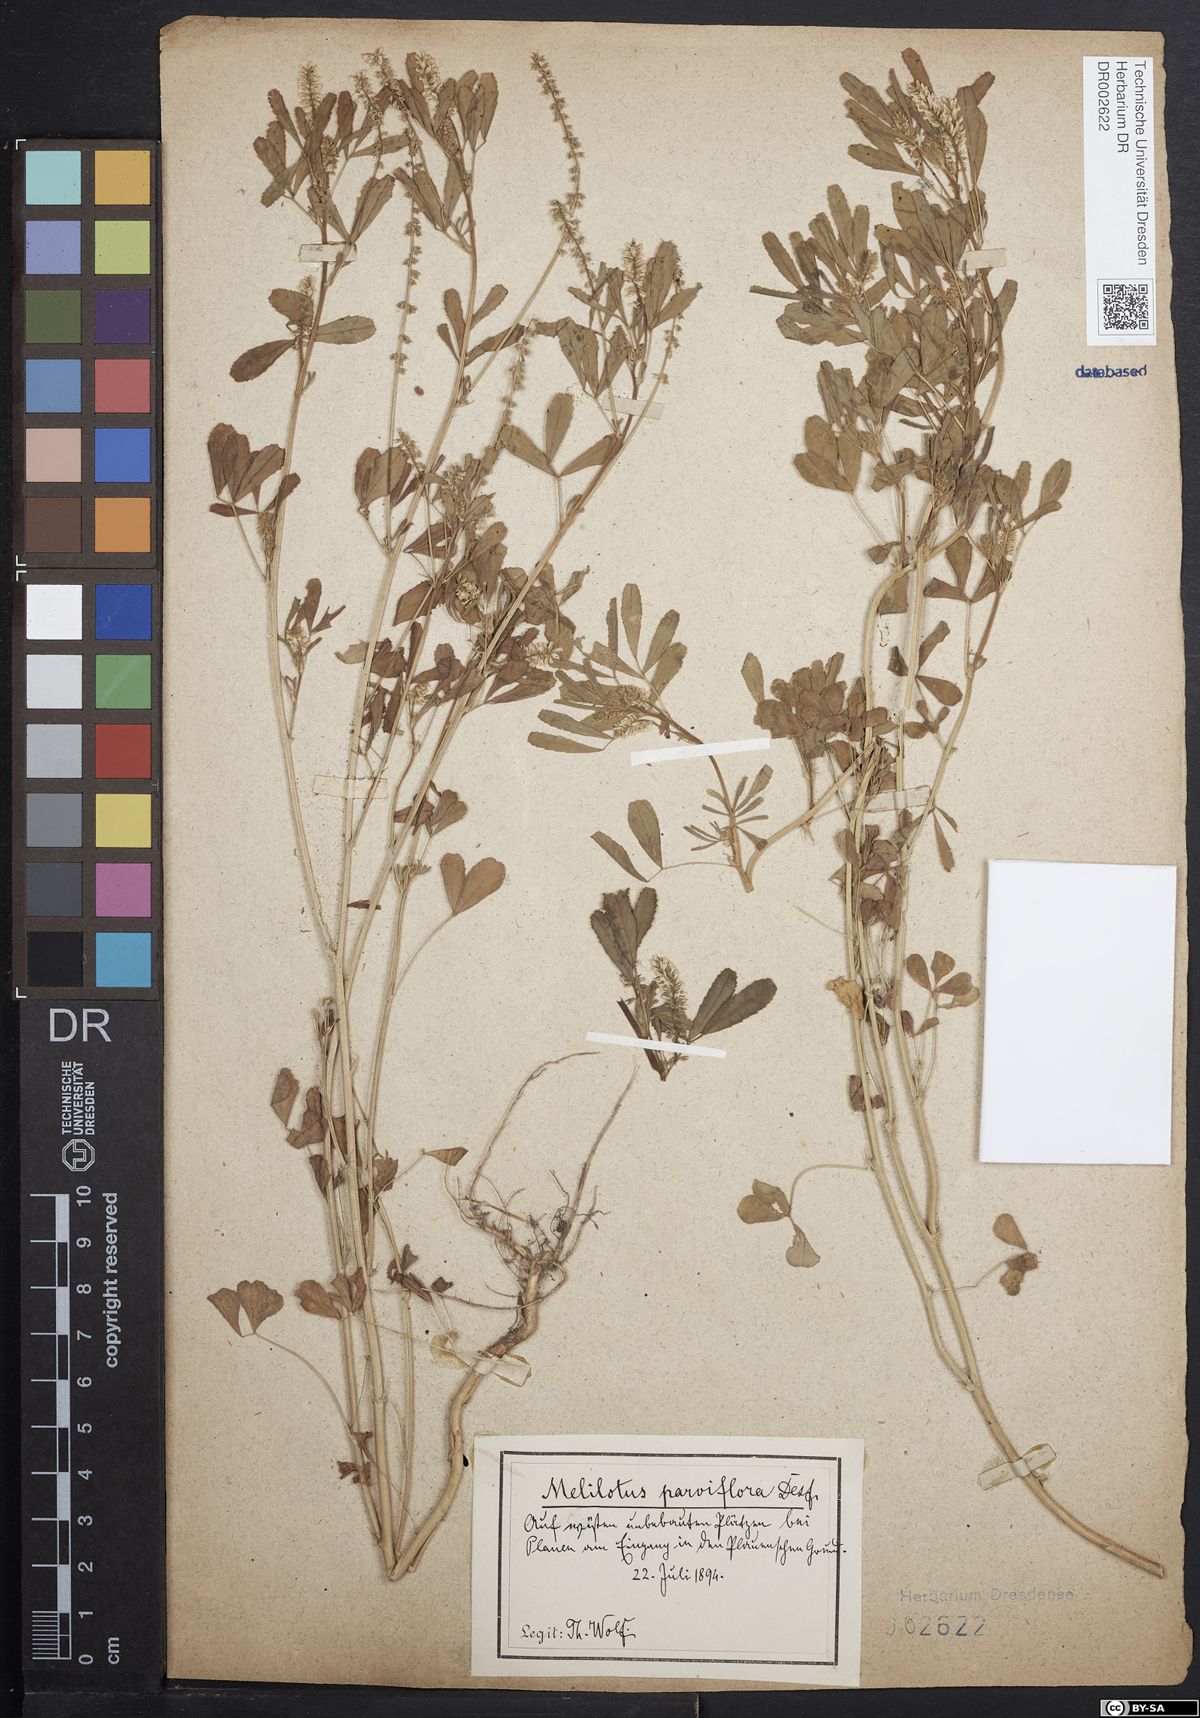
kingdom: Plantae
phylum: Tracheophyta
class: Magnoliopsida
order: Fabales
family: Fabaceae
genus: Melilotus
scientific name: Melilotus indicus
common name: Small melilot
